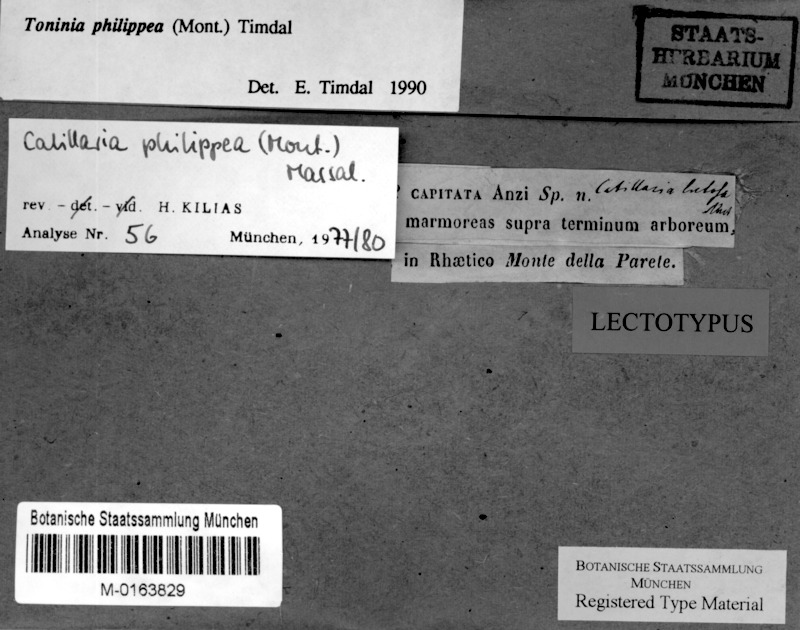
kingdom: Fungi
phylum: Ascomycota
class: Lecanoromycetes
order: Lecanorales
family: Ramalinaceae
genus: Kiliasia
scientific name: Kiliasia philippea
